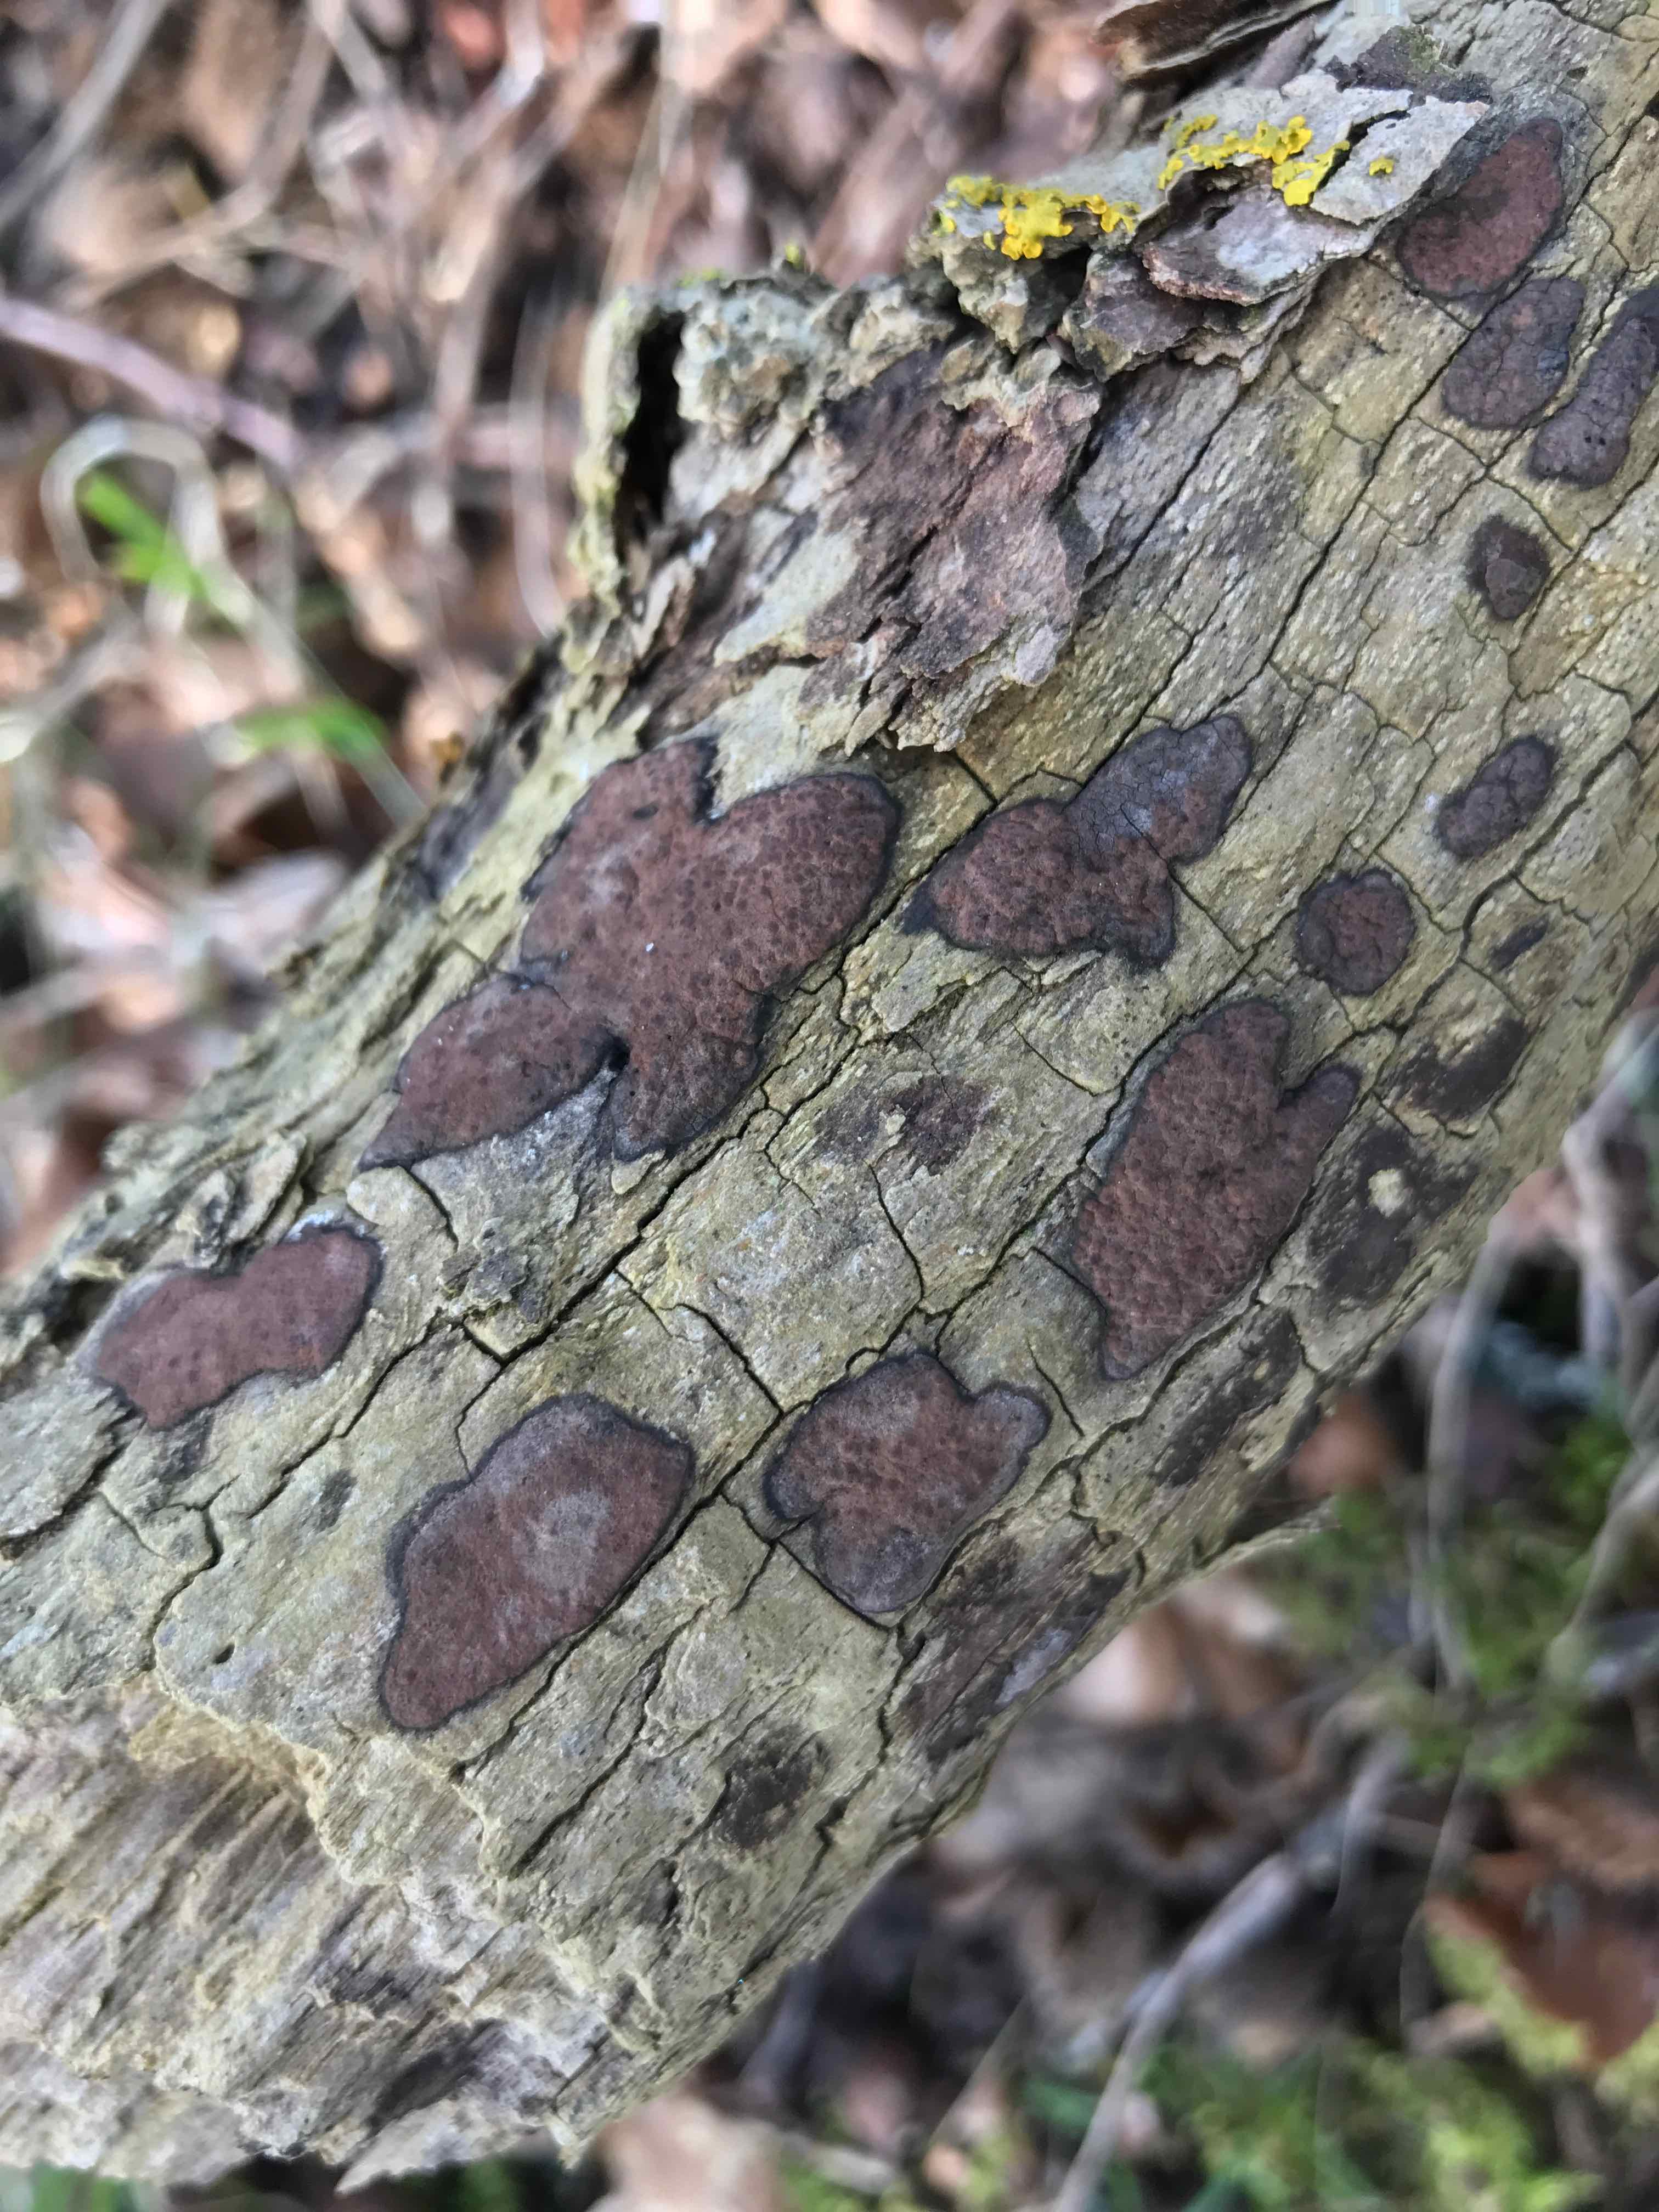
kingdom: Fungi
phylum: Ascomycota
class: Sordariomycetes
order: Xylariales
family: Hypoxylaceae
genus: Hypoxylon
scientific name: Hypoxylon petriniae
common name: nedsænket kulbær
